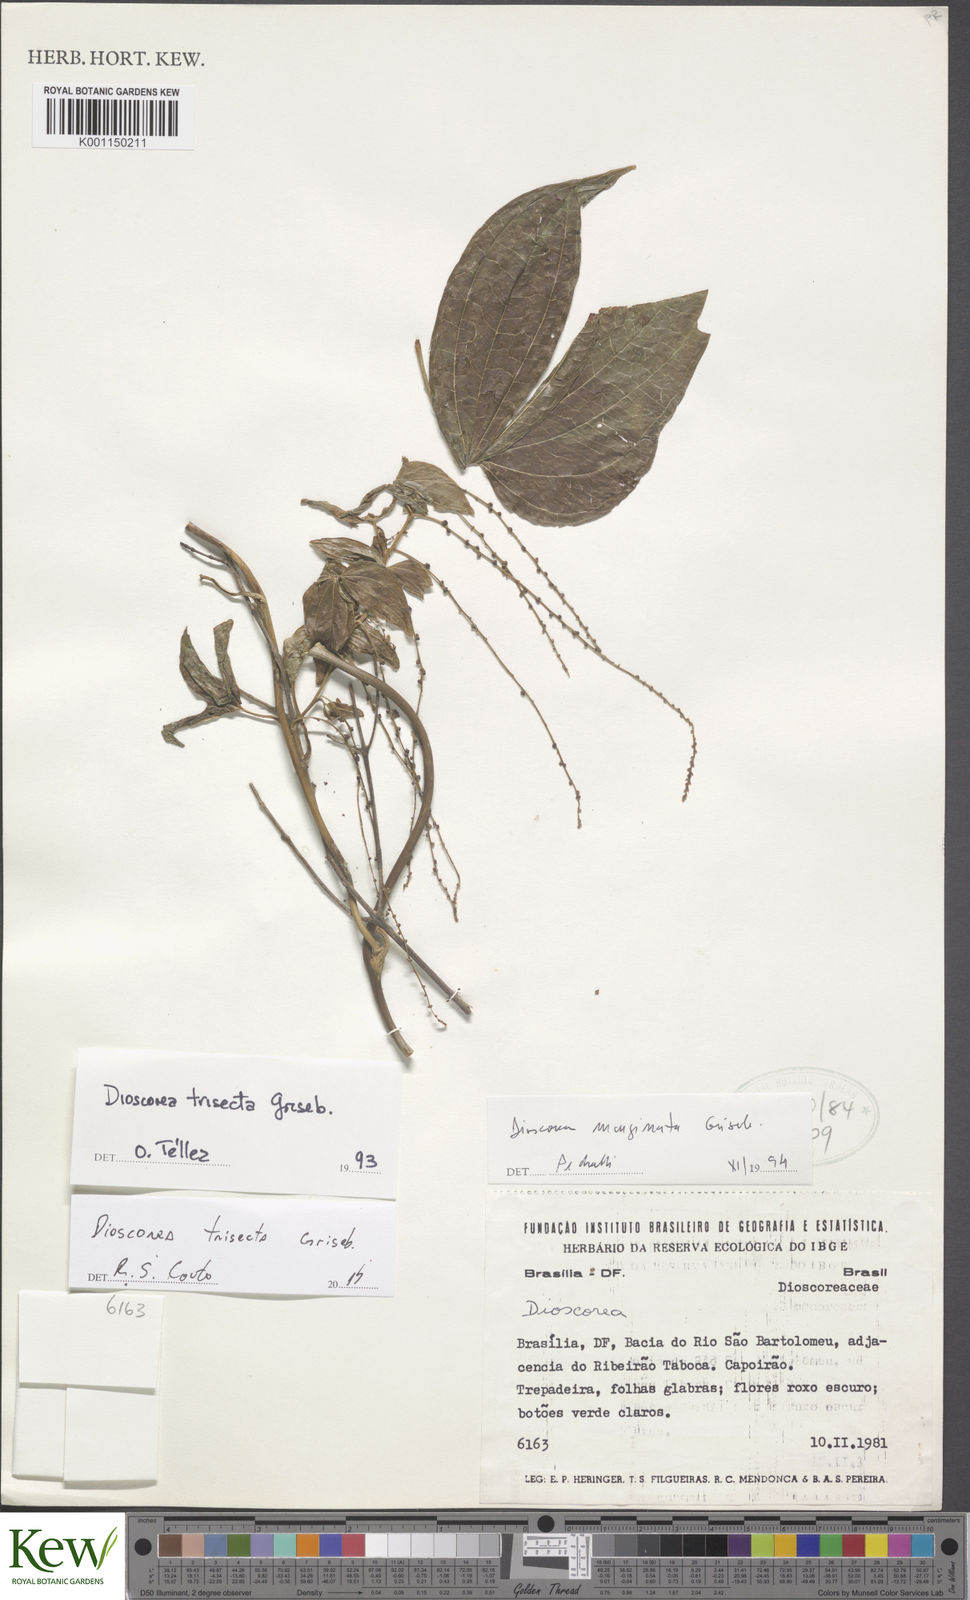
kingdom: Plantae
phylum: Tracheophyta
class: Liliopsida
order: Dioscoreales
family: Dioscoreaceae
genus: Dioscorea
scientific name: Dioscorea trisecta
